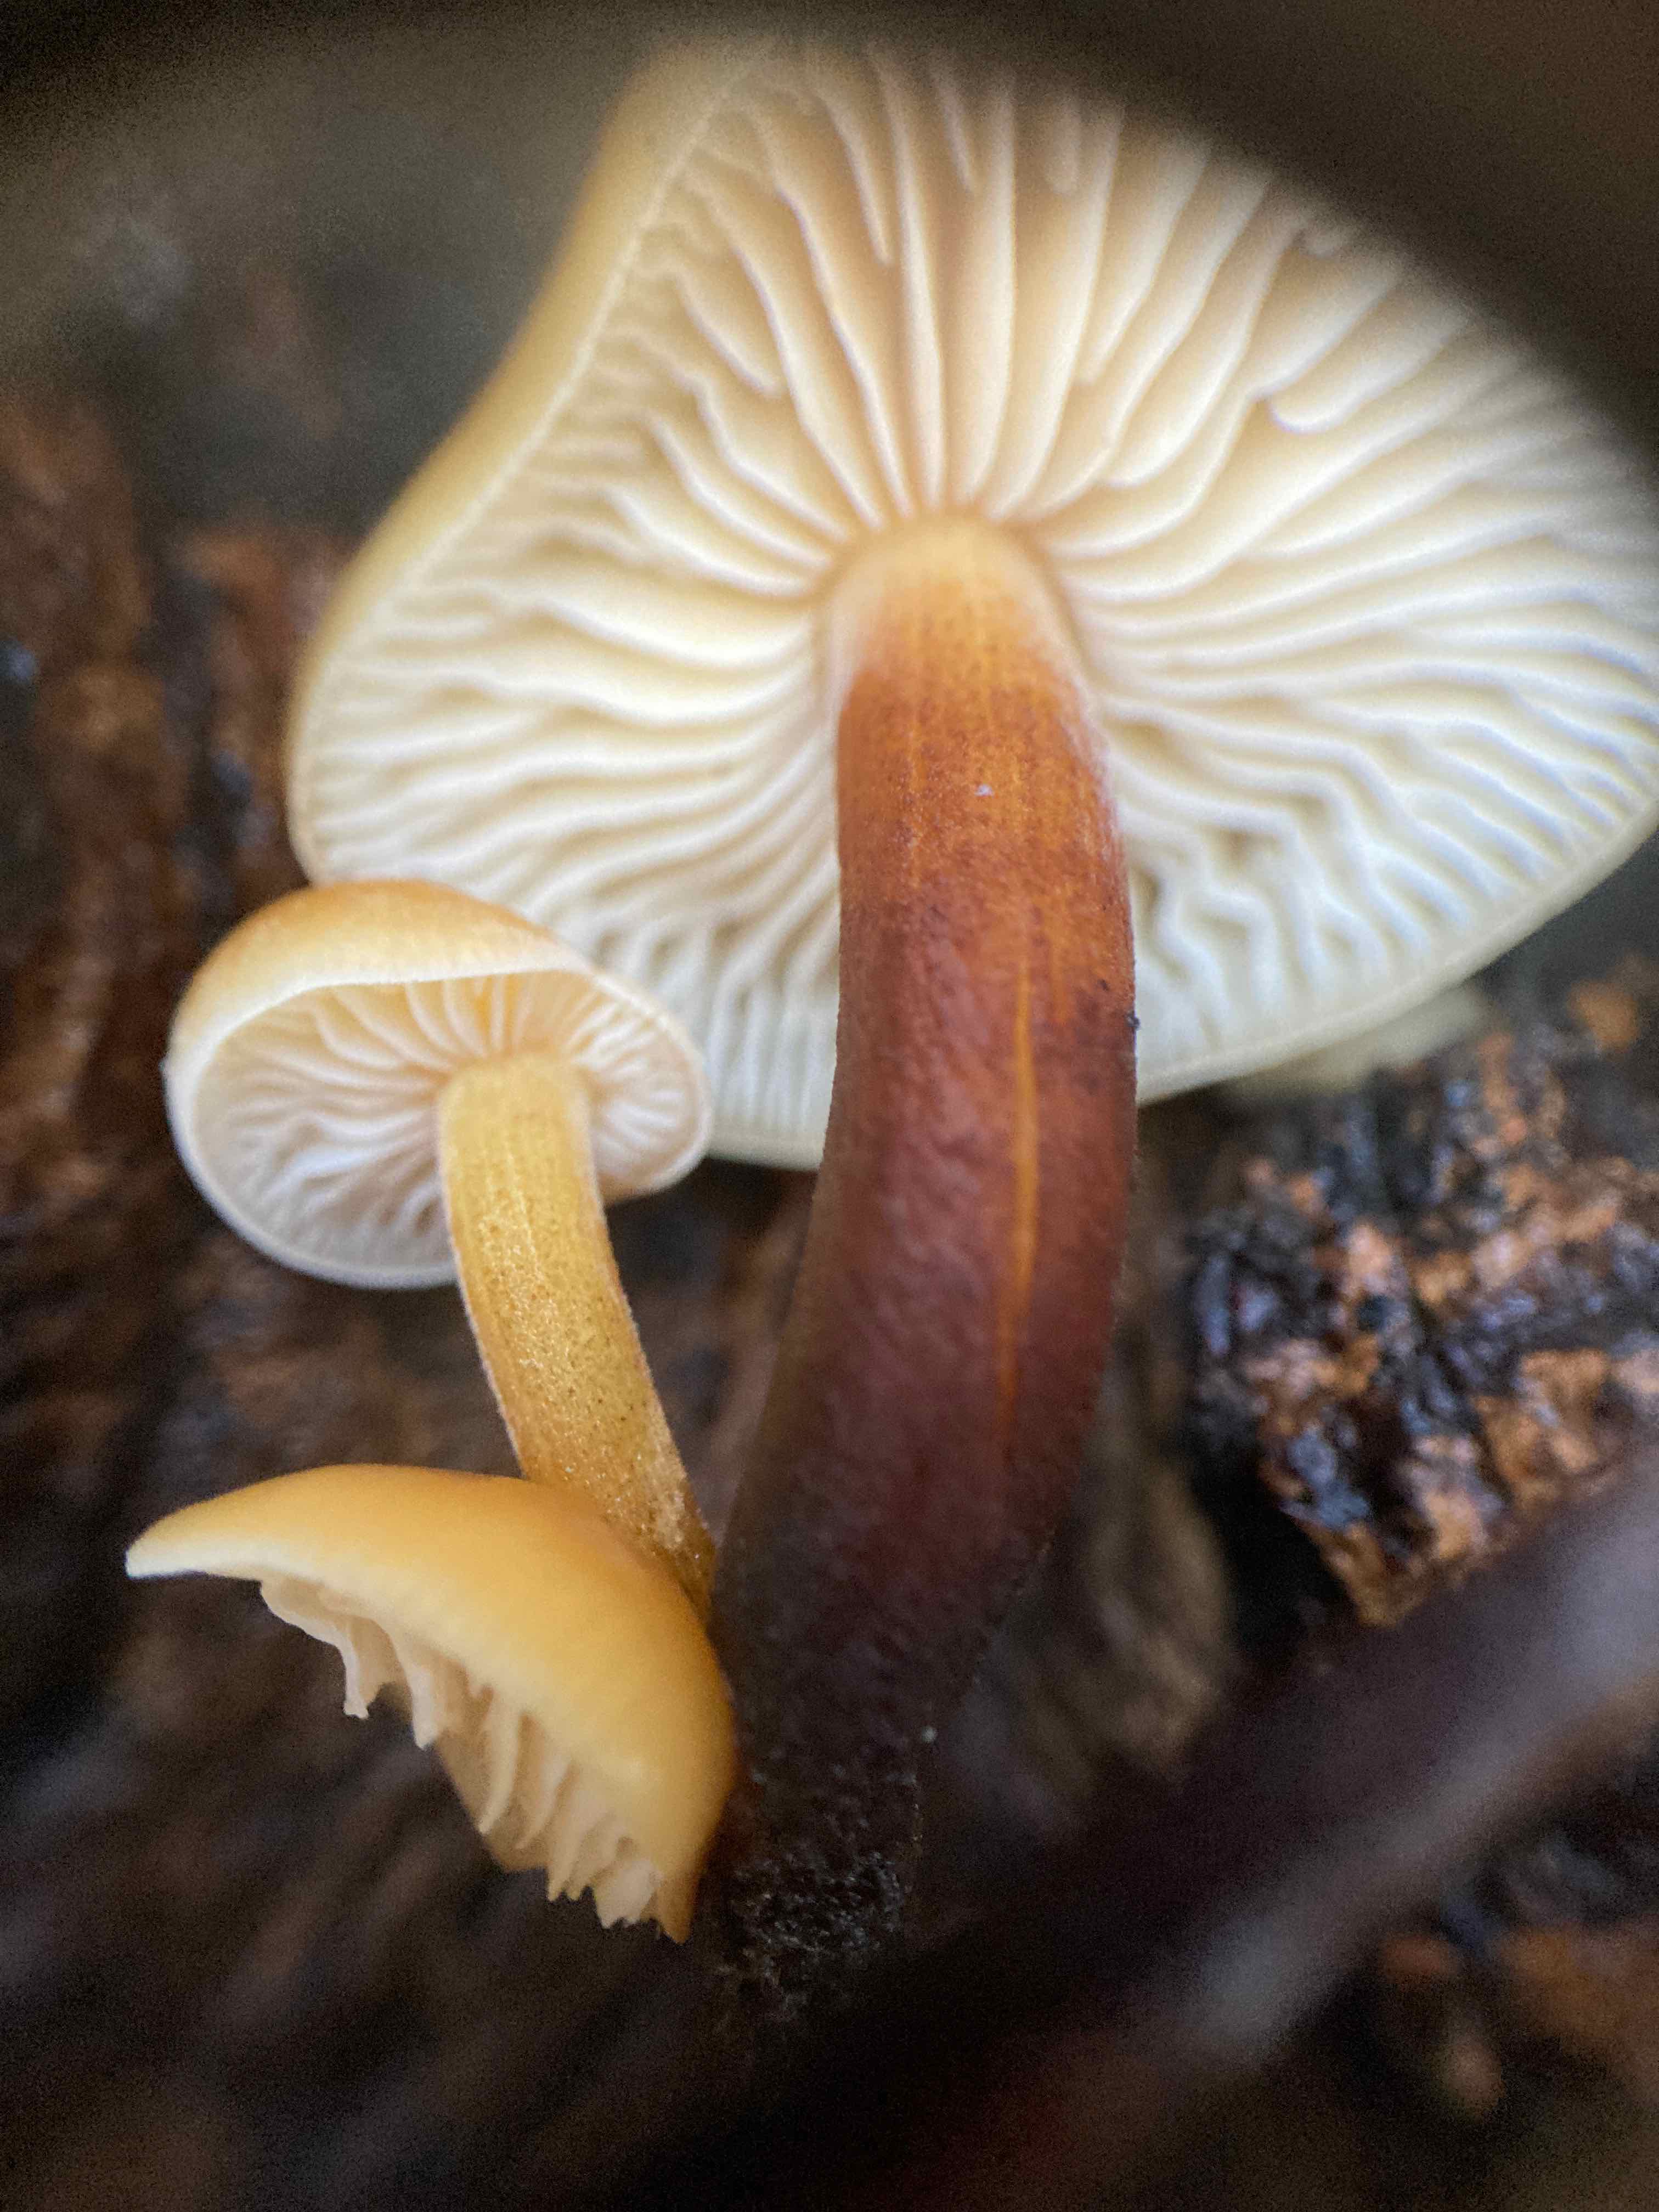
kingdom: Fungi
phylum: Basidiomycota
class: Agaricomycetes
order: Agaricales
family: Physalacriaceae
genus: Flammulina
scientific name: Flammulina velutipes
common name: gul fløjlsfod
